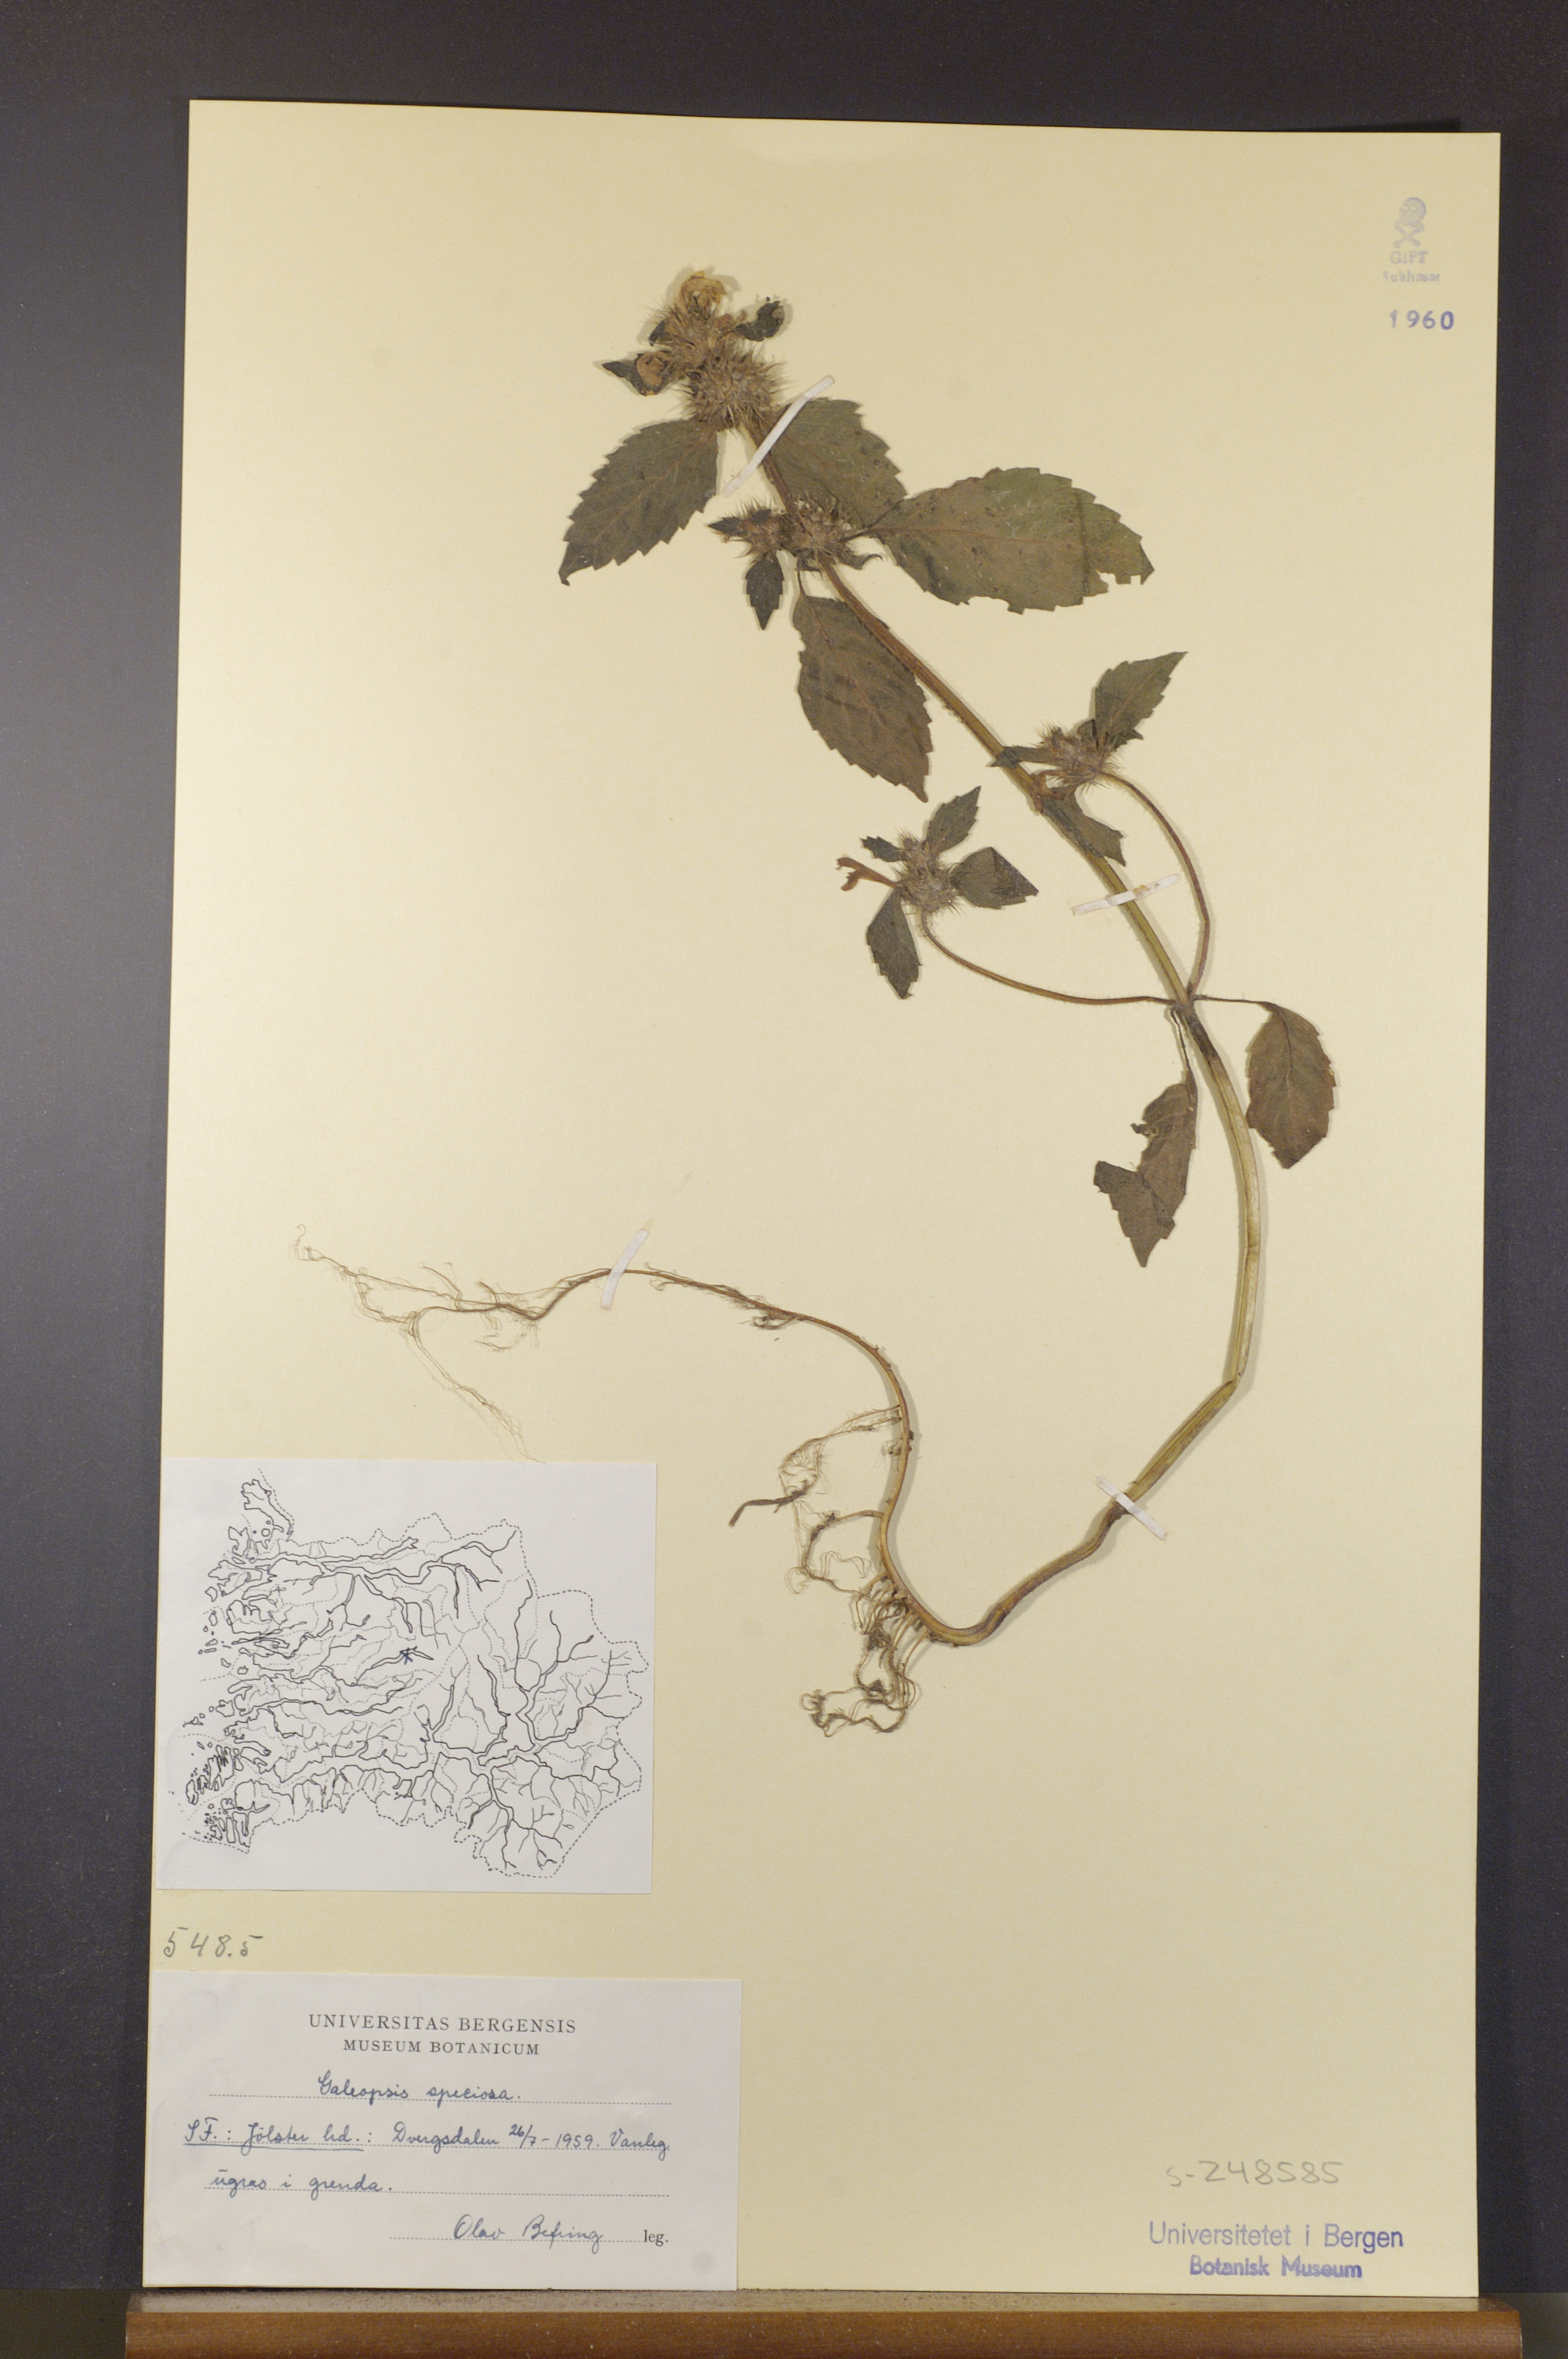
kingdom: Plantae
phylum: Tracheophyta
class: Magnoliopsida
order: Lamiales
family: Lamiaceae
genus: Galeopsis
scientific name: Galeopsis speciosa
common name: Large-flowered hemp-nettle
